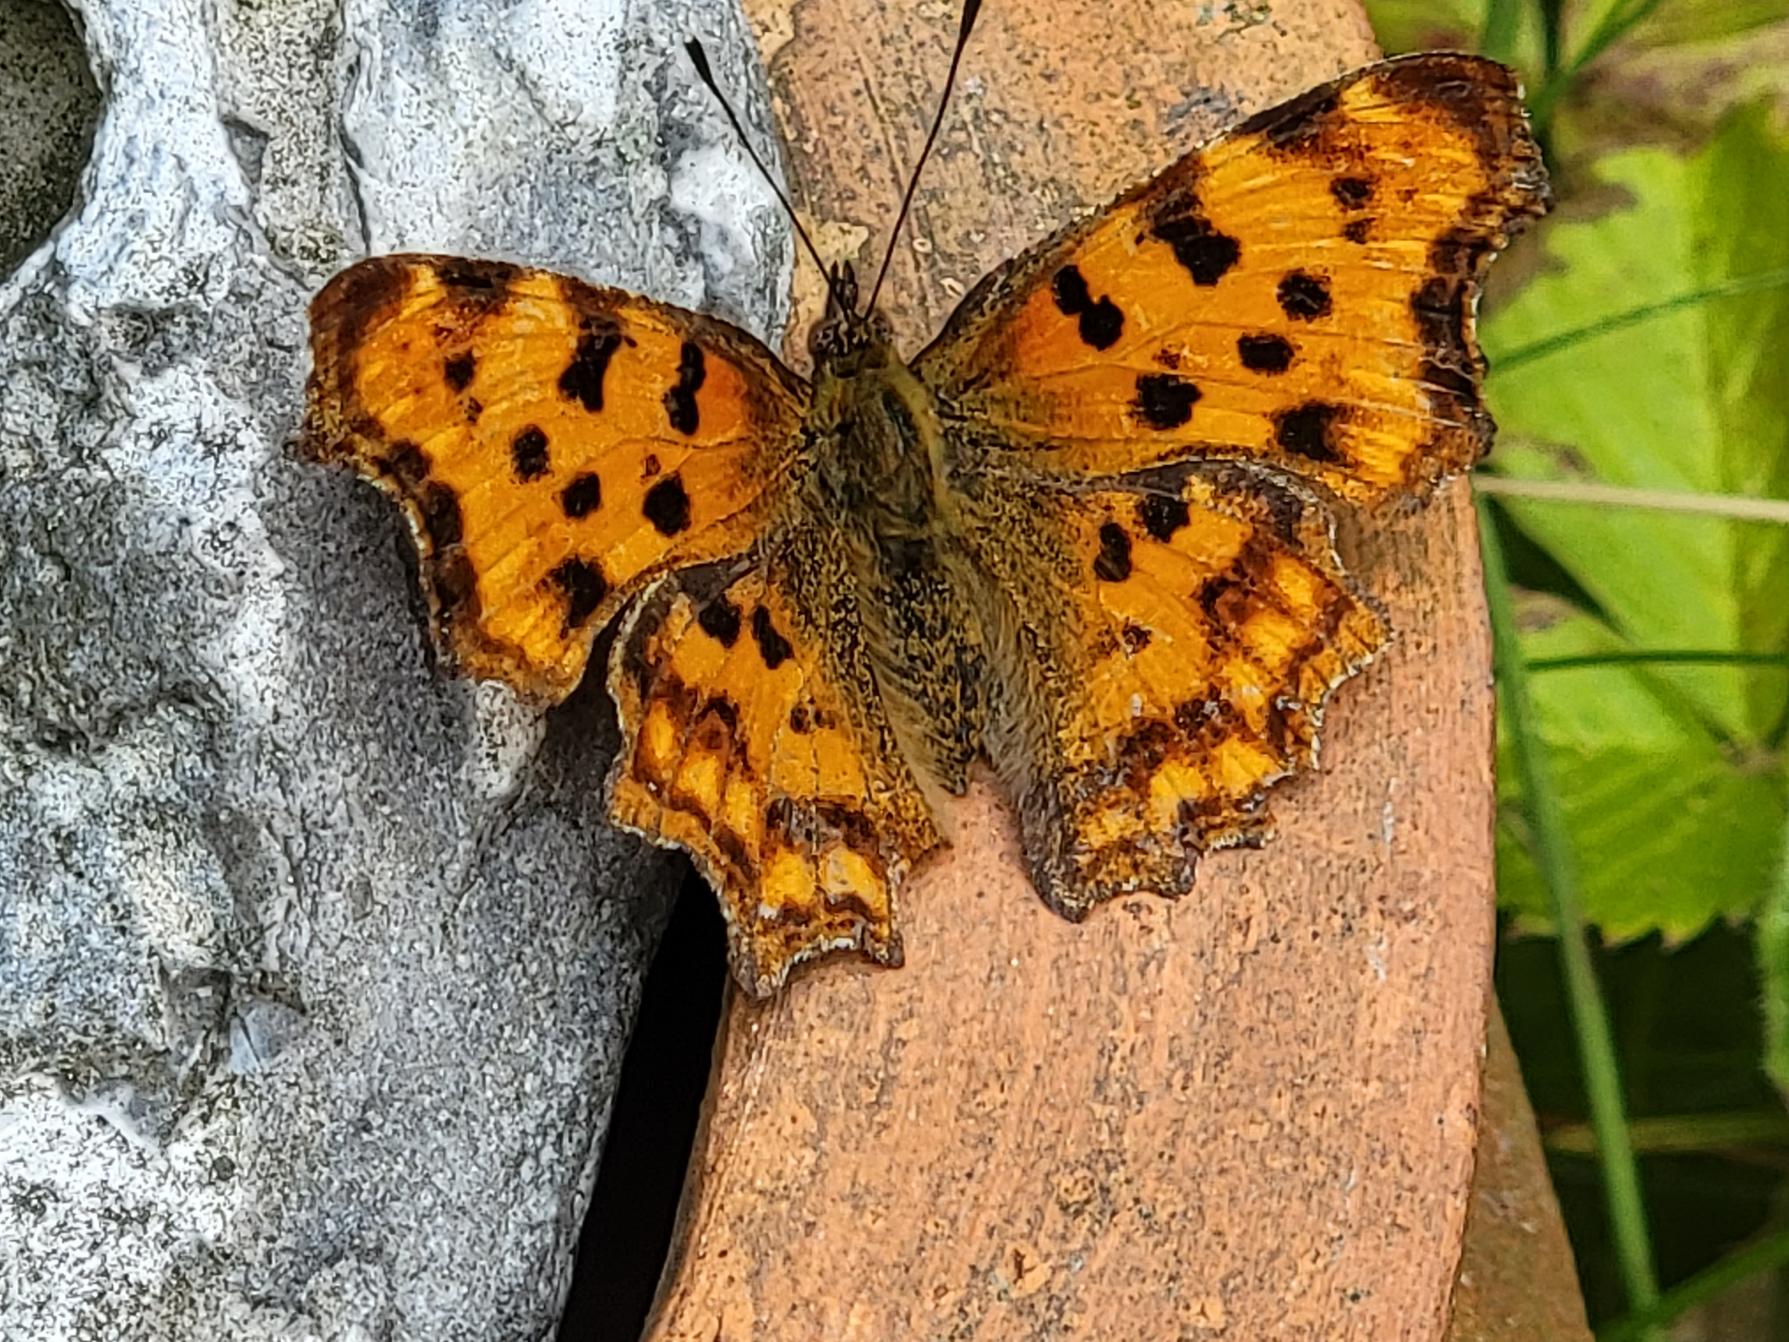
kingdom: Animalia
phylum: Arthropoda
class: Insecta
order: Lepidoptera
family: Nymphalidae
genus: Polygonia
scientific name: Polygonia c-album
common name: Det hvide C
